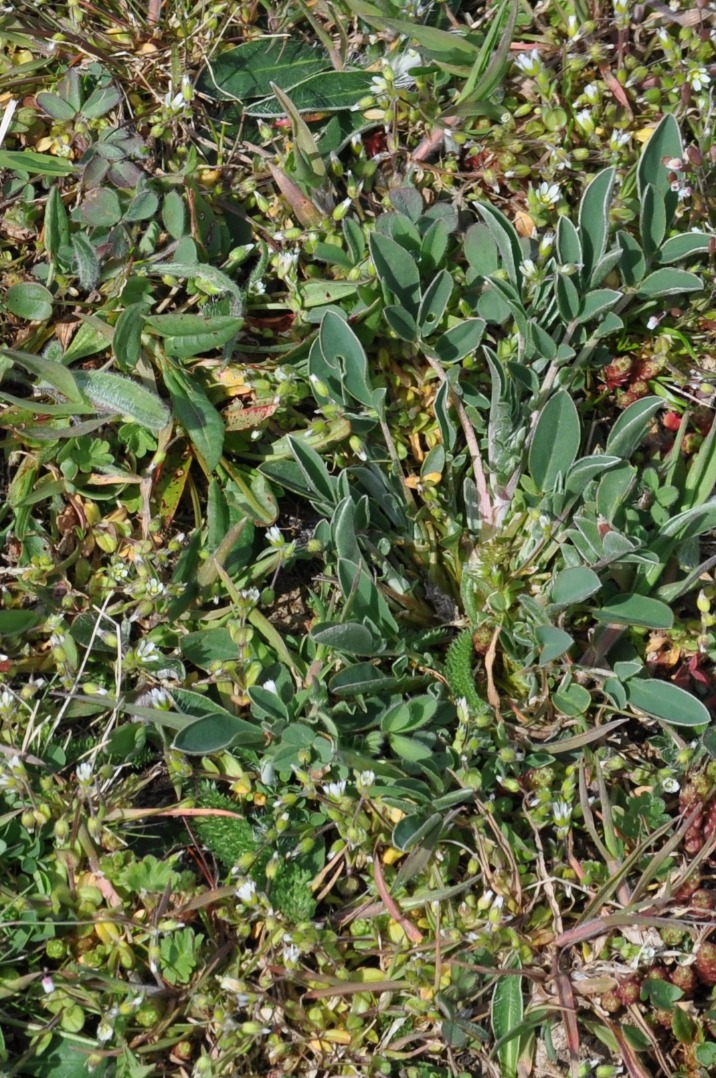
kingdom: Plantae
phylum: Tracheophyta
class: Magnoliopsida
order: Fabales
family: Fabaceae
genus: Anthyllis
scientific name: Anthyllis vulneraria
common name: Rundbælg
